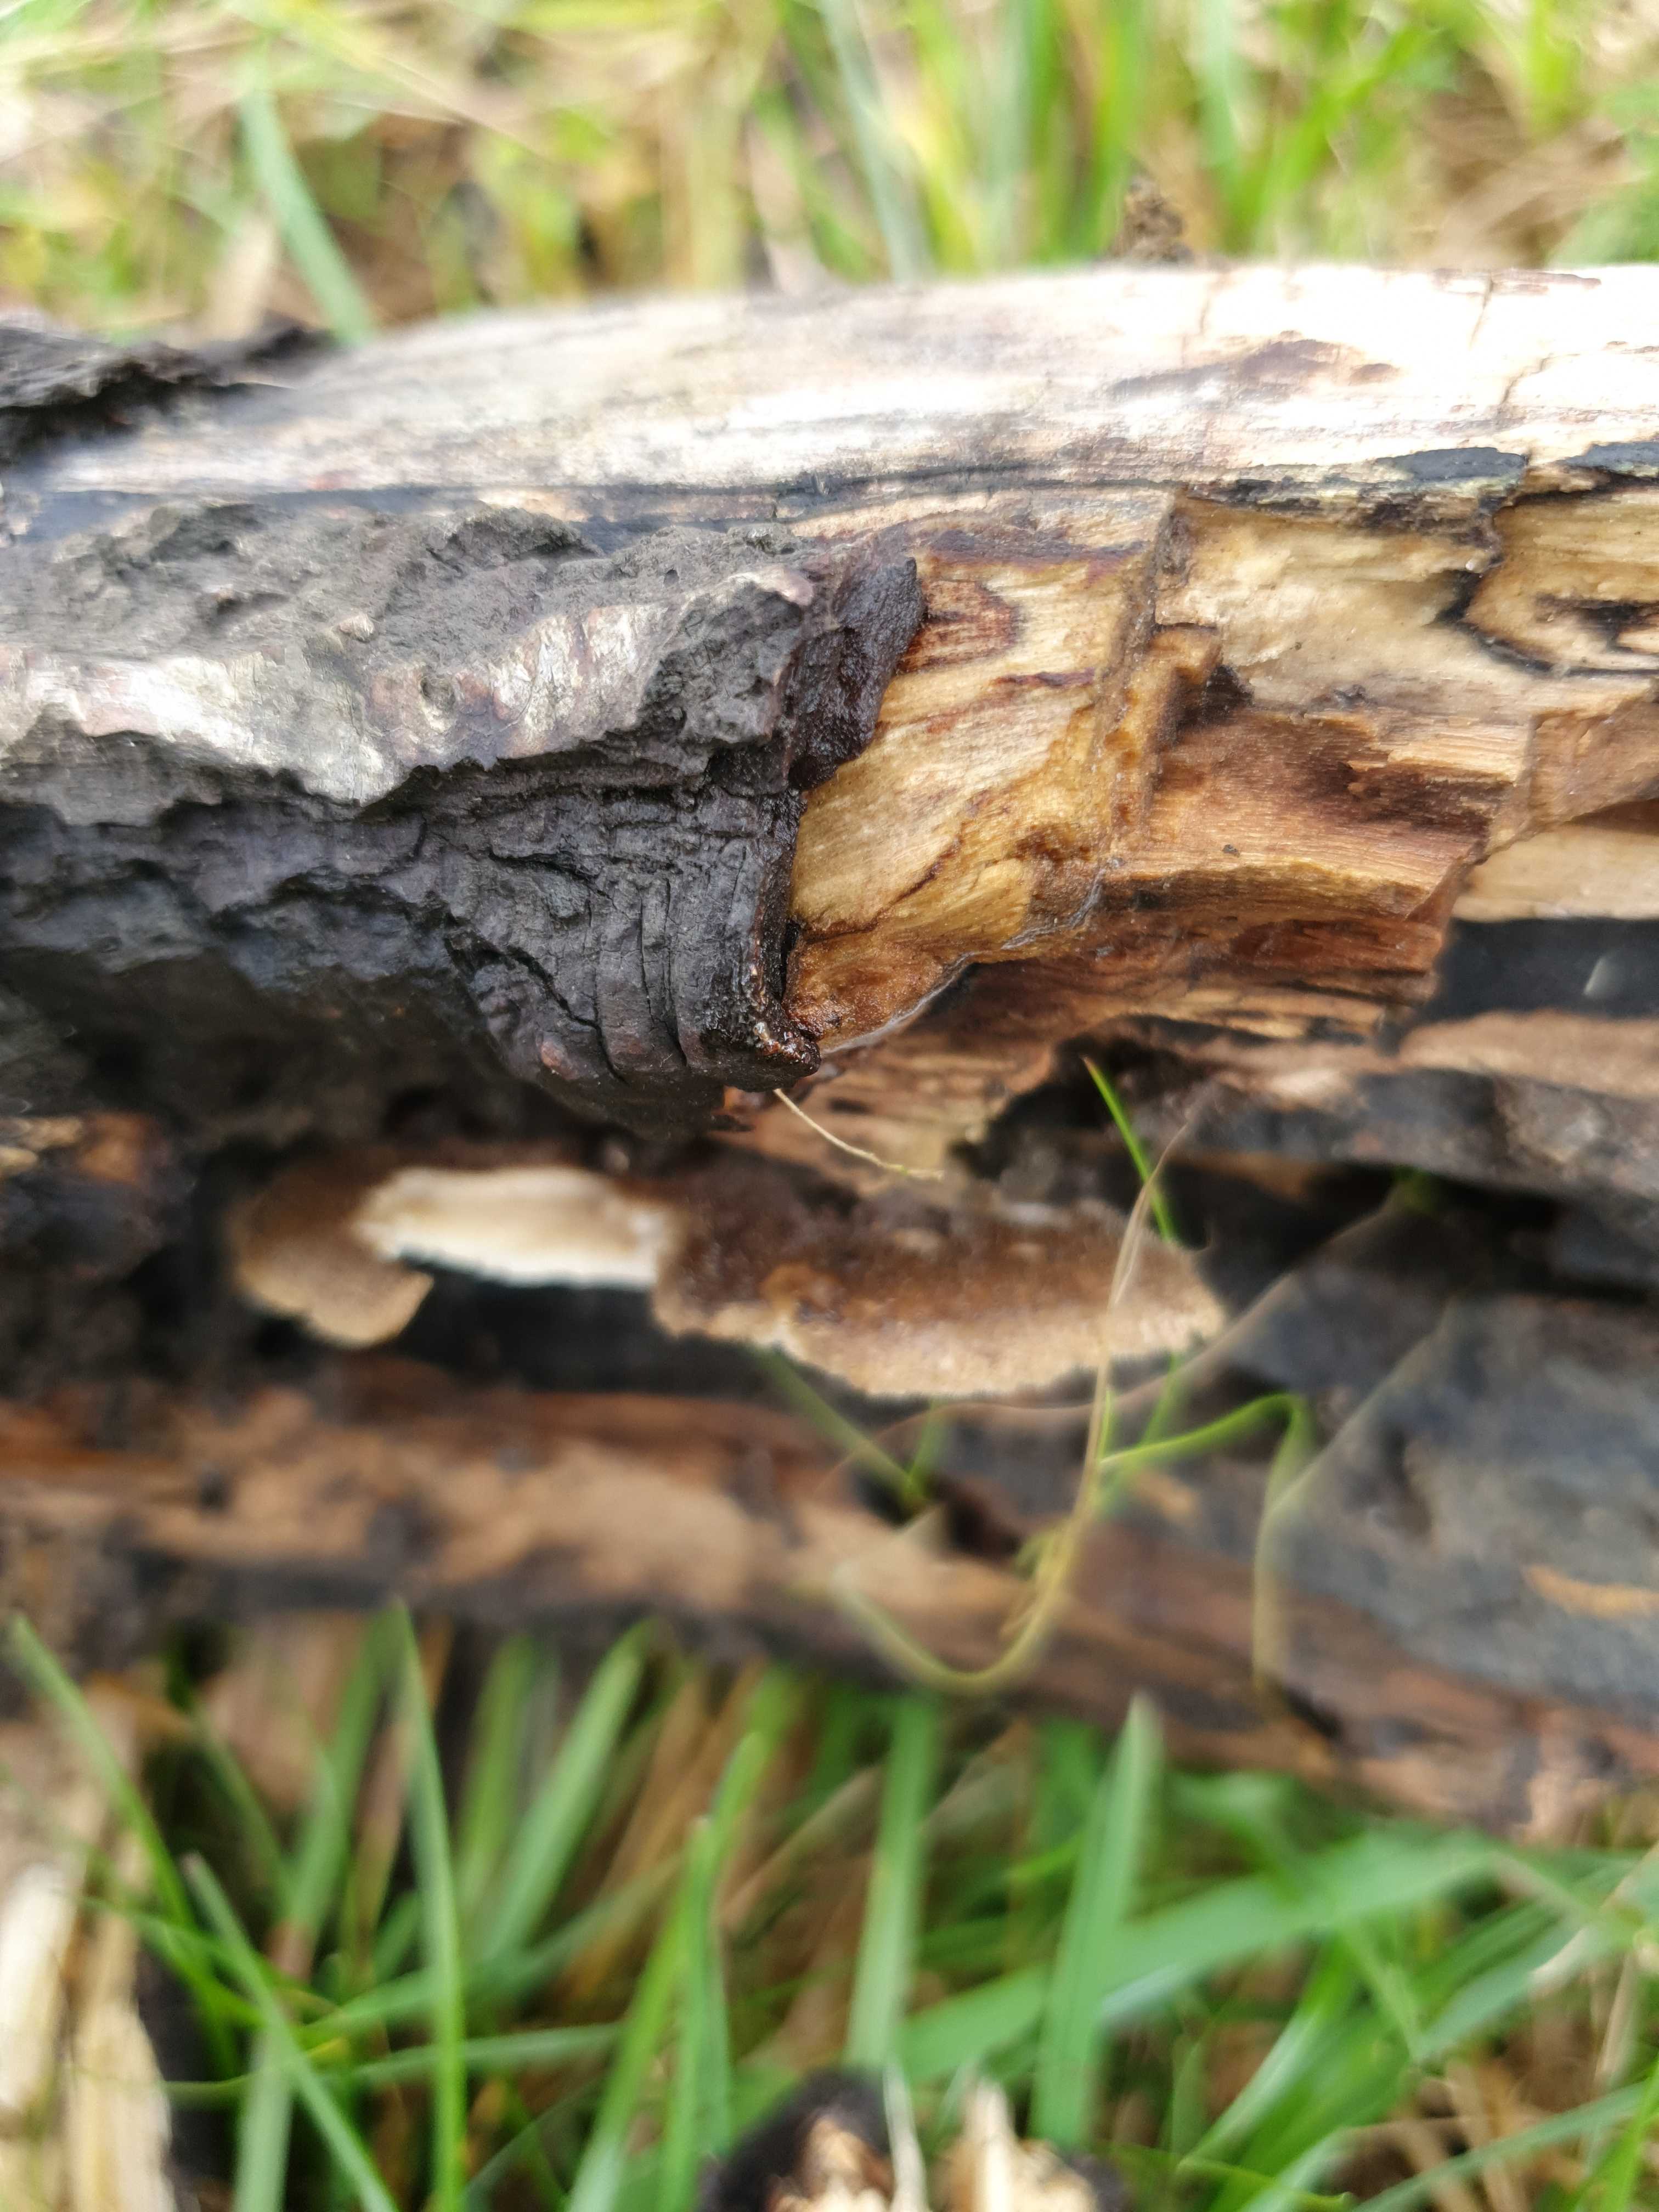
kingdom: Fungi
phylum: Basidiomycota
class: Agaricomycetes
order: Polyporales
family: Polyporaceae
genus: Lentinus
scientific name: Lentinus brumalis
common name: vinter-stilkporesvamp
